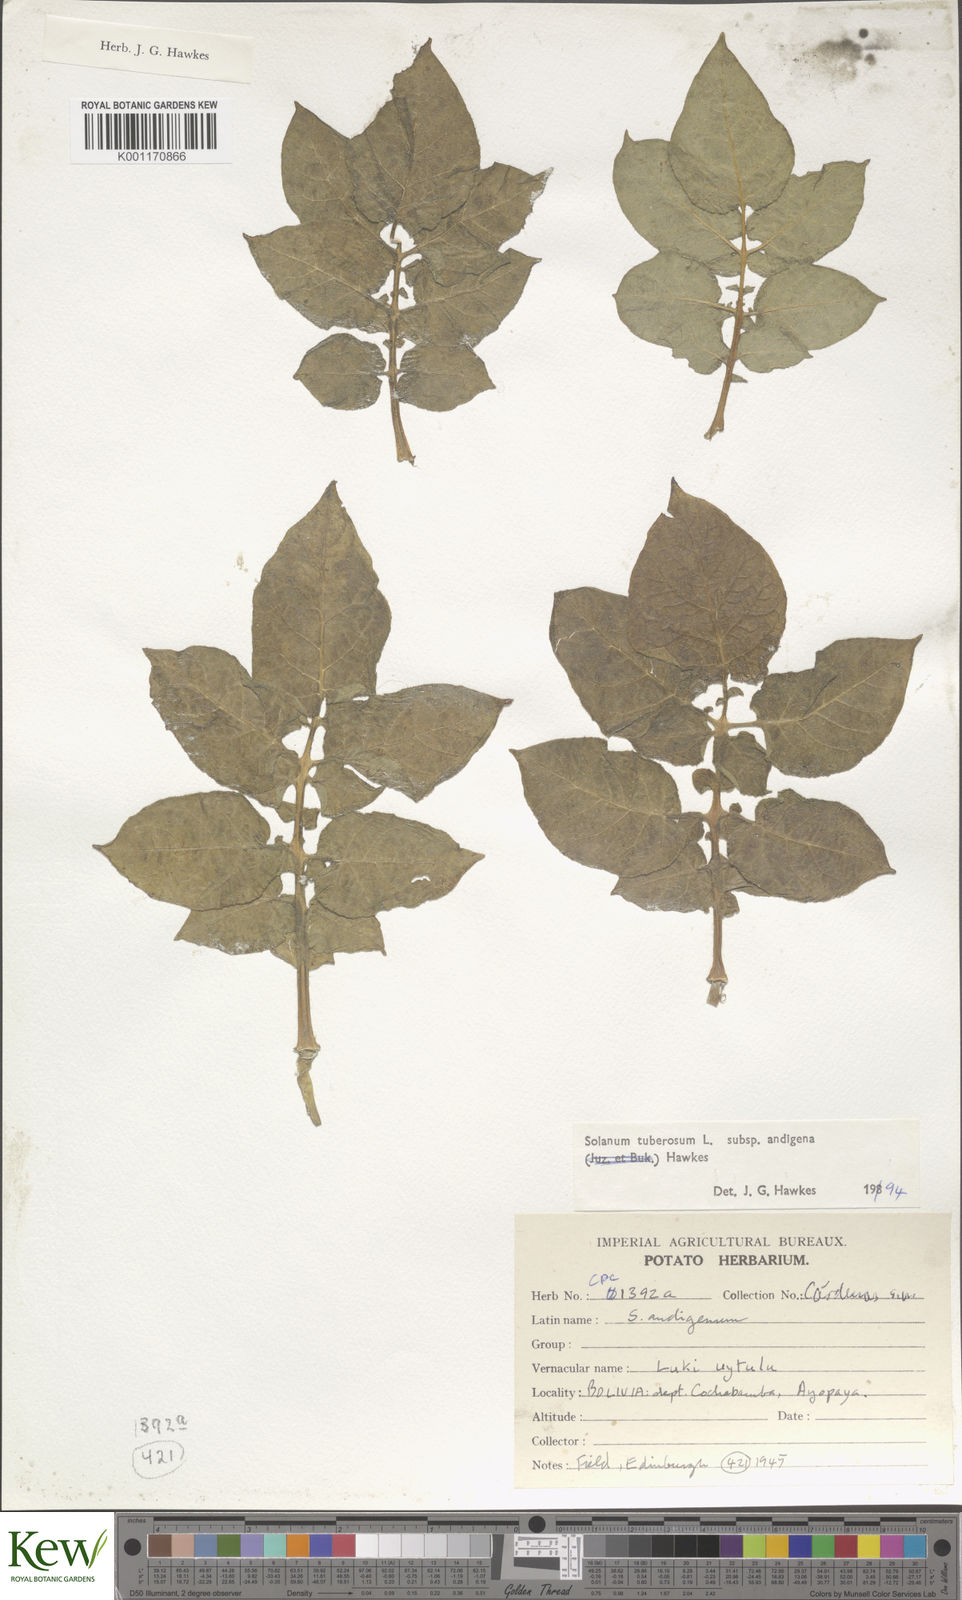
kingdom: Plantae
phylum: Tracheophyta
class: Magnoliopsida
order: Solanales
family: Solanaceae
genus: Solanum
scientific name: Solanum tuberosum
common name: Potato
